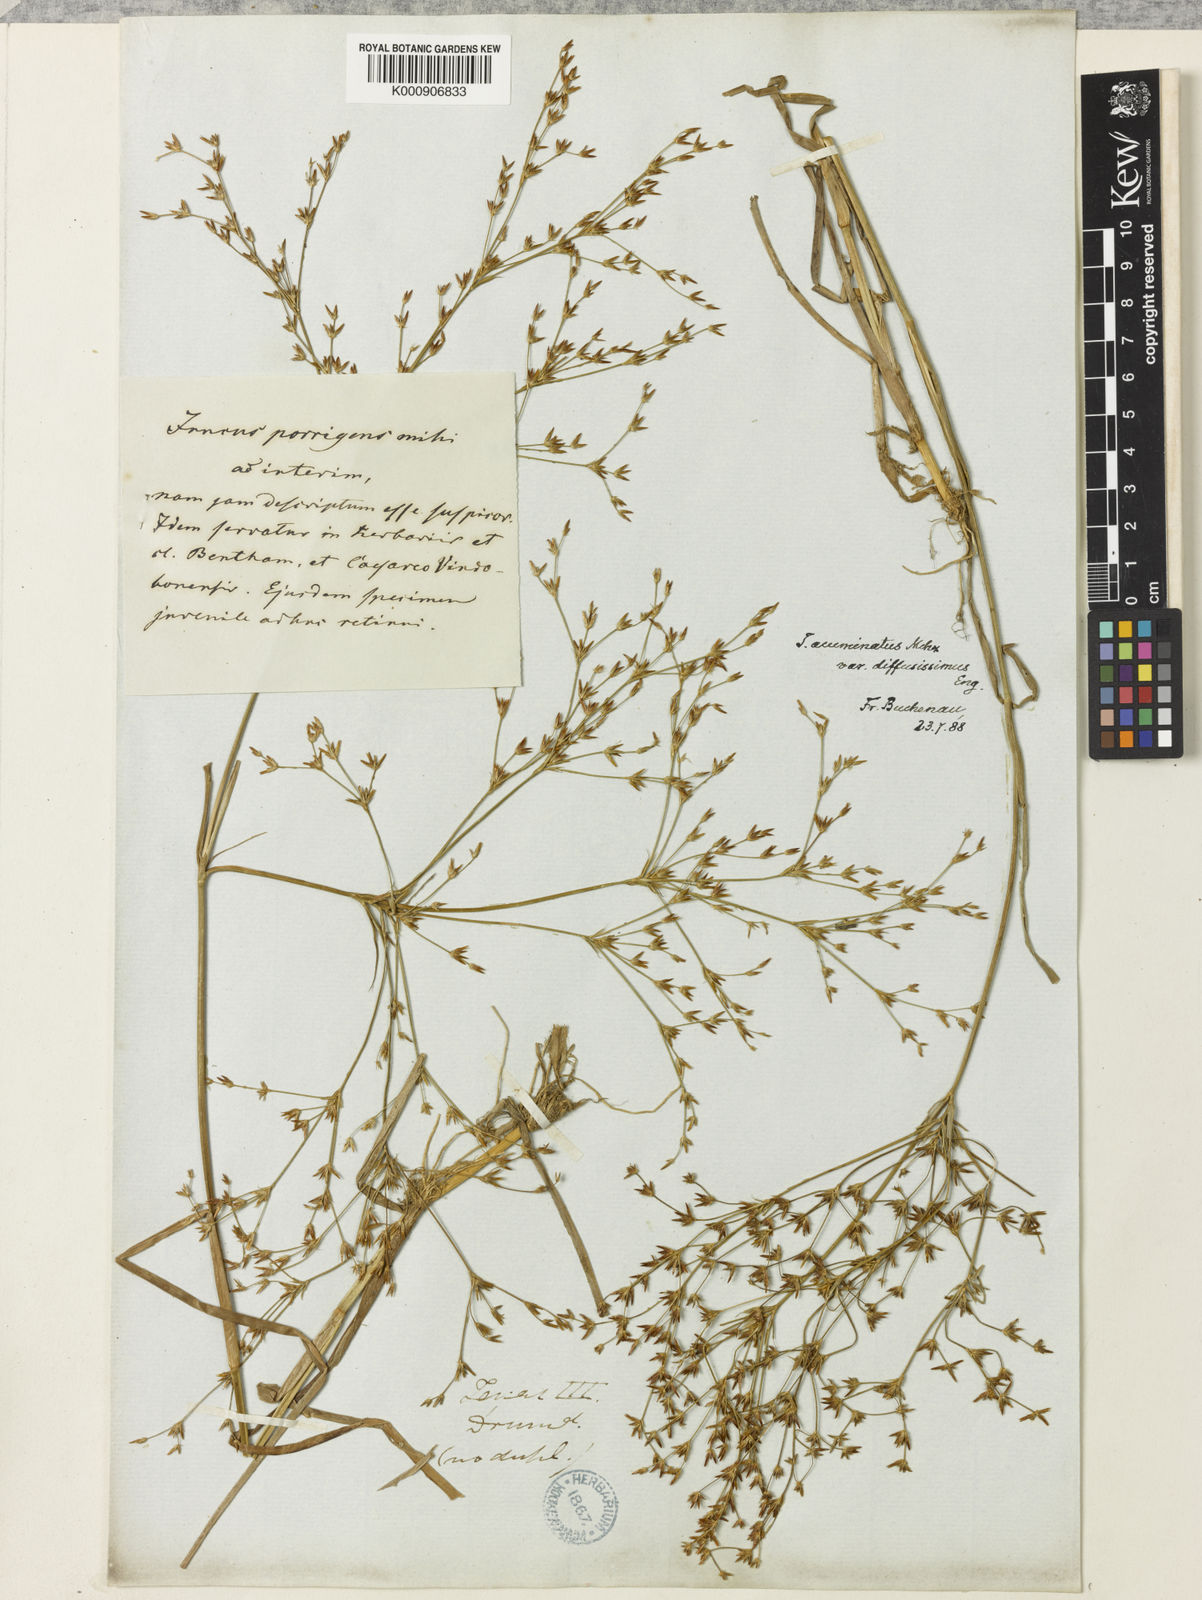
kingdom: Plantae
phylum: Tracheophyta
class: Liliopsida
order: Poales
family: Juncaceae
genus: Juncus
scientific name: Juncus diffusissimus
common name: Slimpod rush
